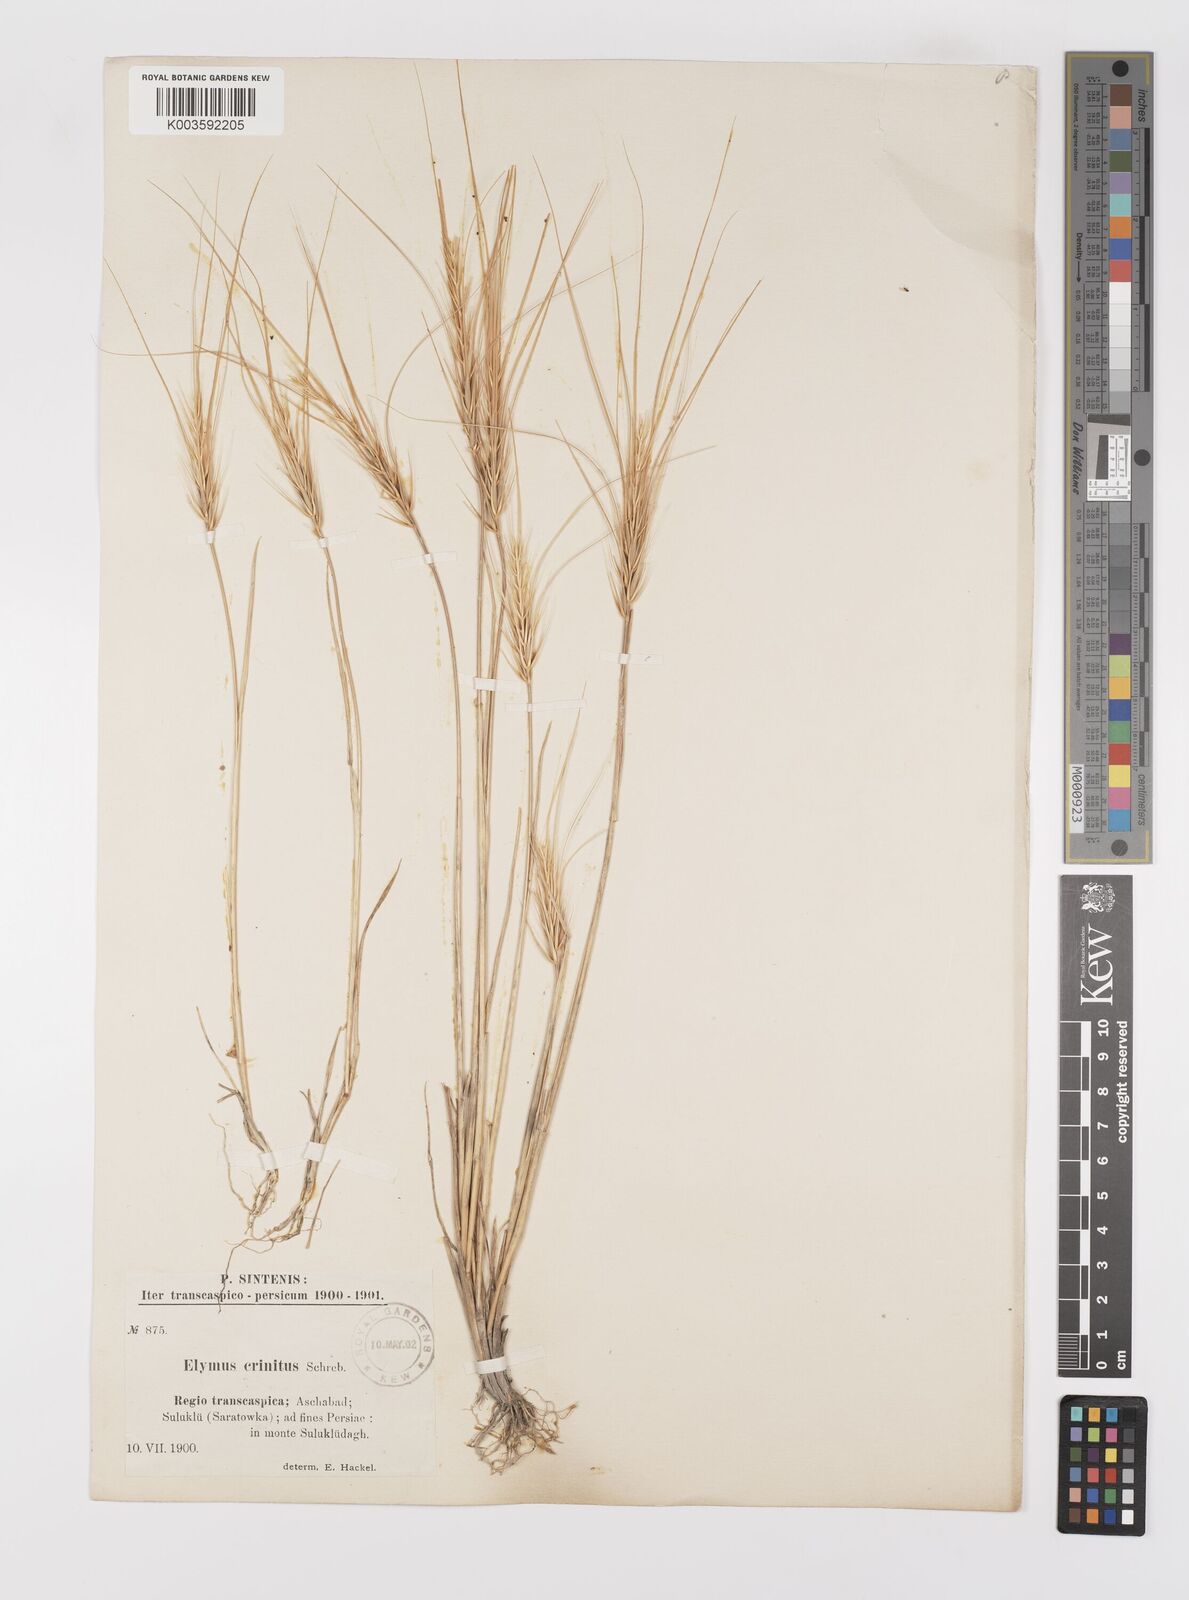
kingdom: Plantae
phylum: Tracheophyta
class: Liliopsida
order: Poales
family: Poaceae
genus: Taeniatherum
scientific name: Taeniatherum caput-medusae
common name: Medusahead
